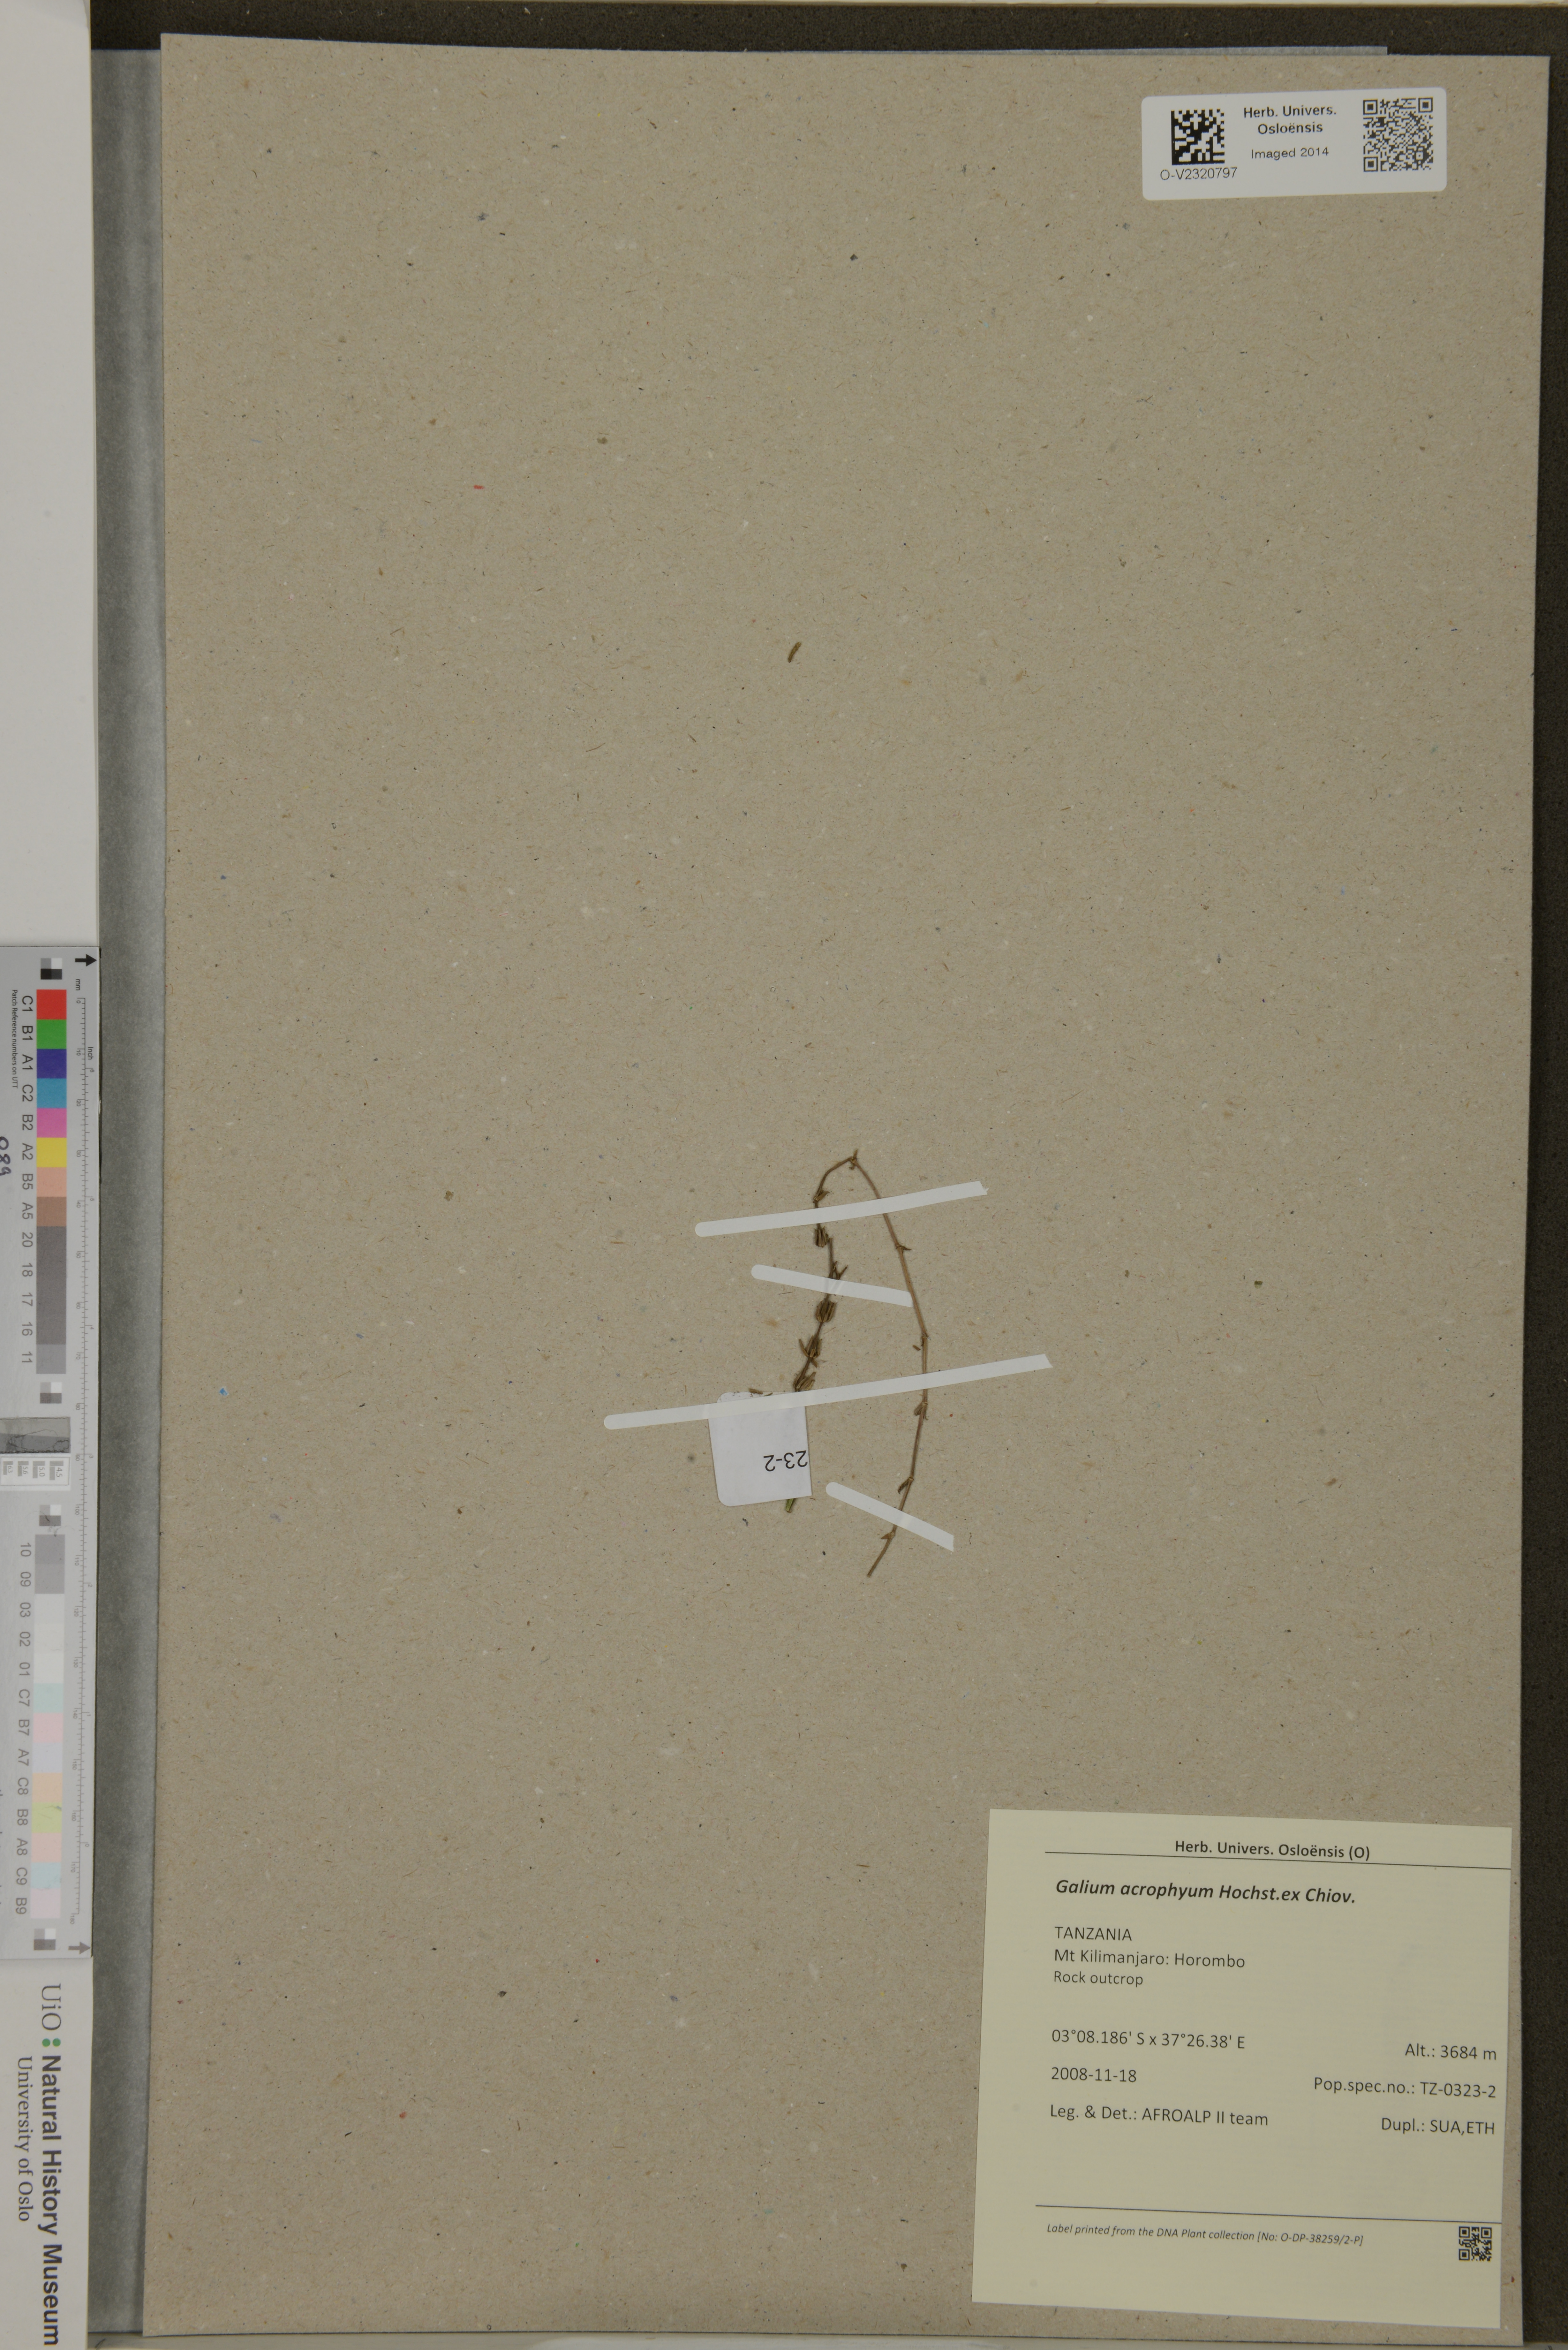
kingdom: Plantae
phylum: Tracheophyta
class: Magnoliopsida
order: Gentianales
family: Rubiaceae
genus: Galium
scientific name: Galium acrophyum
